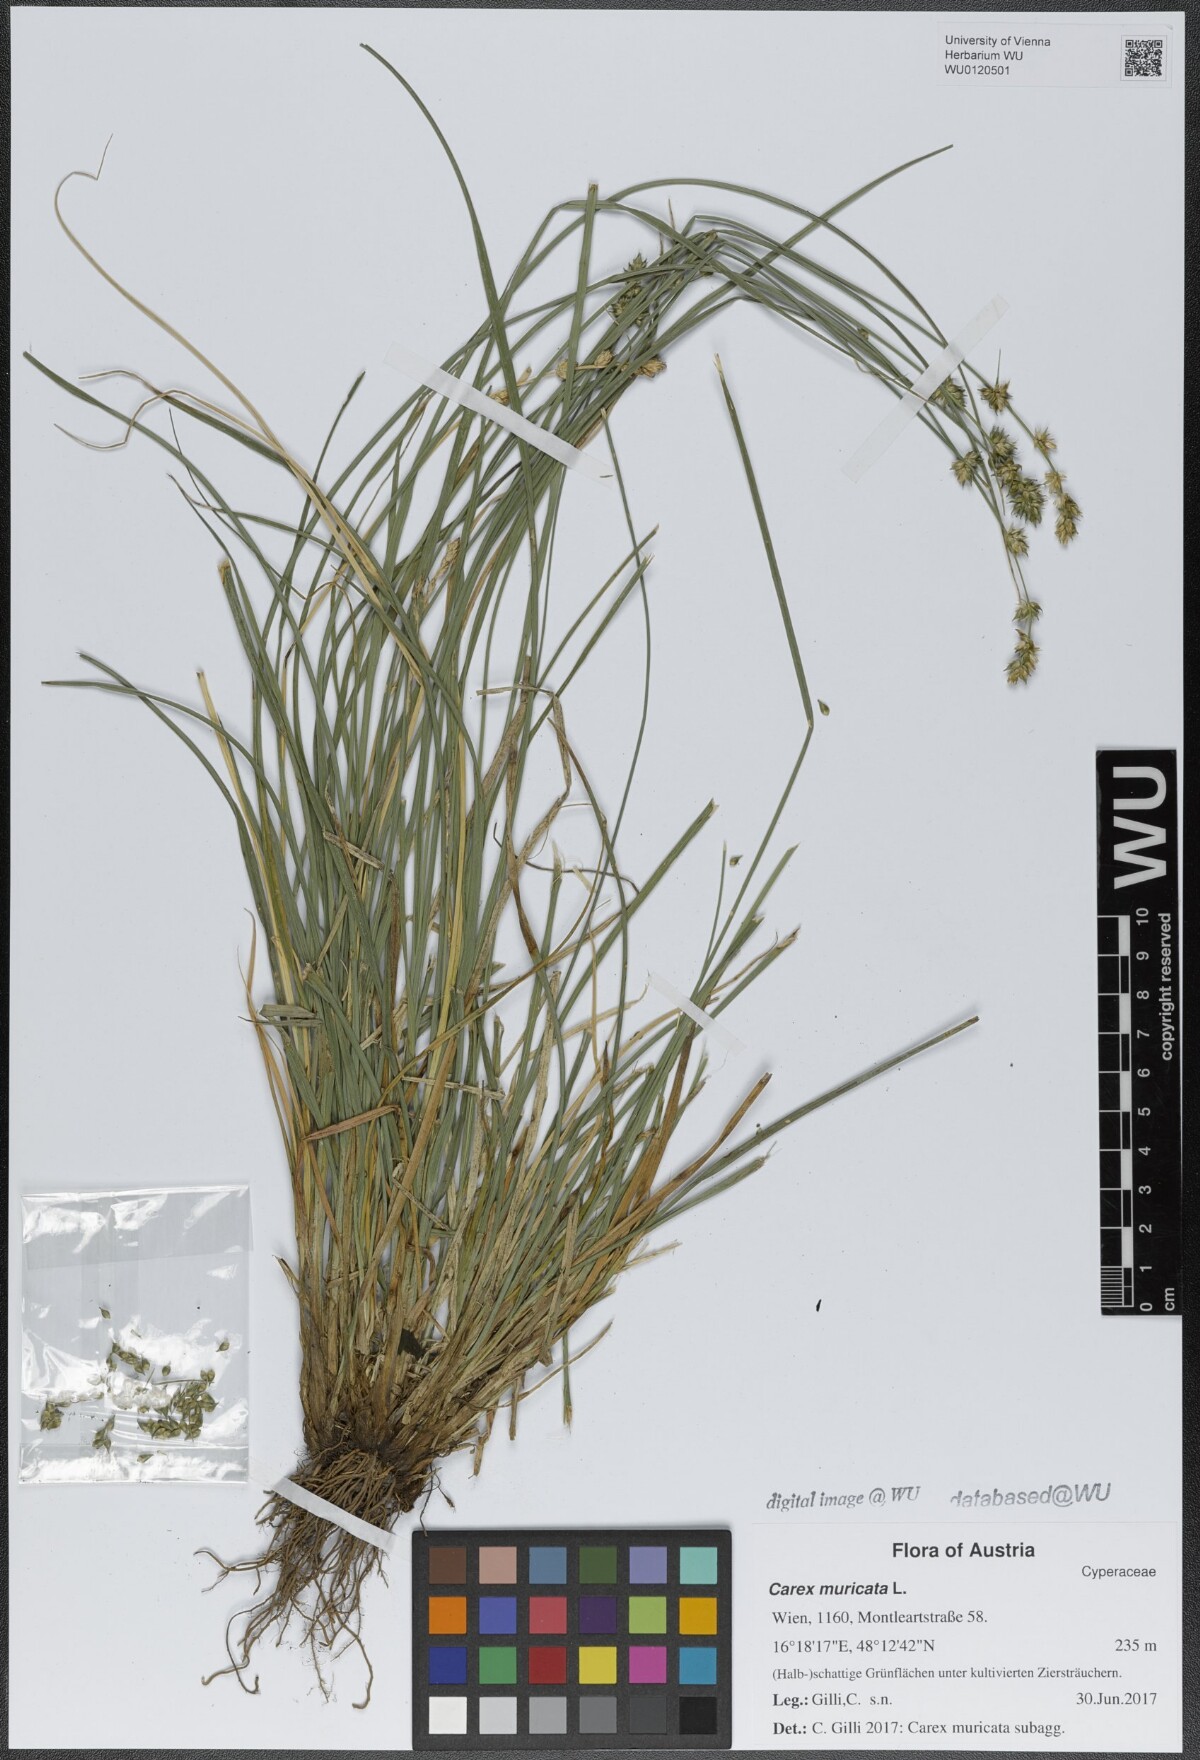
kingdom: Plantae
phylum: Tracheophyta
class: Liliopsida
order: Poales
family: Cyperaceae
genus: Carex
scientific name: Carex muricata
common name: Rough sedge
